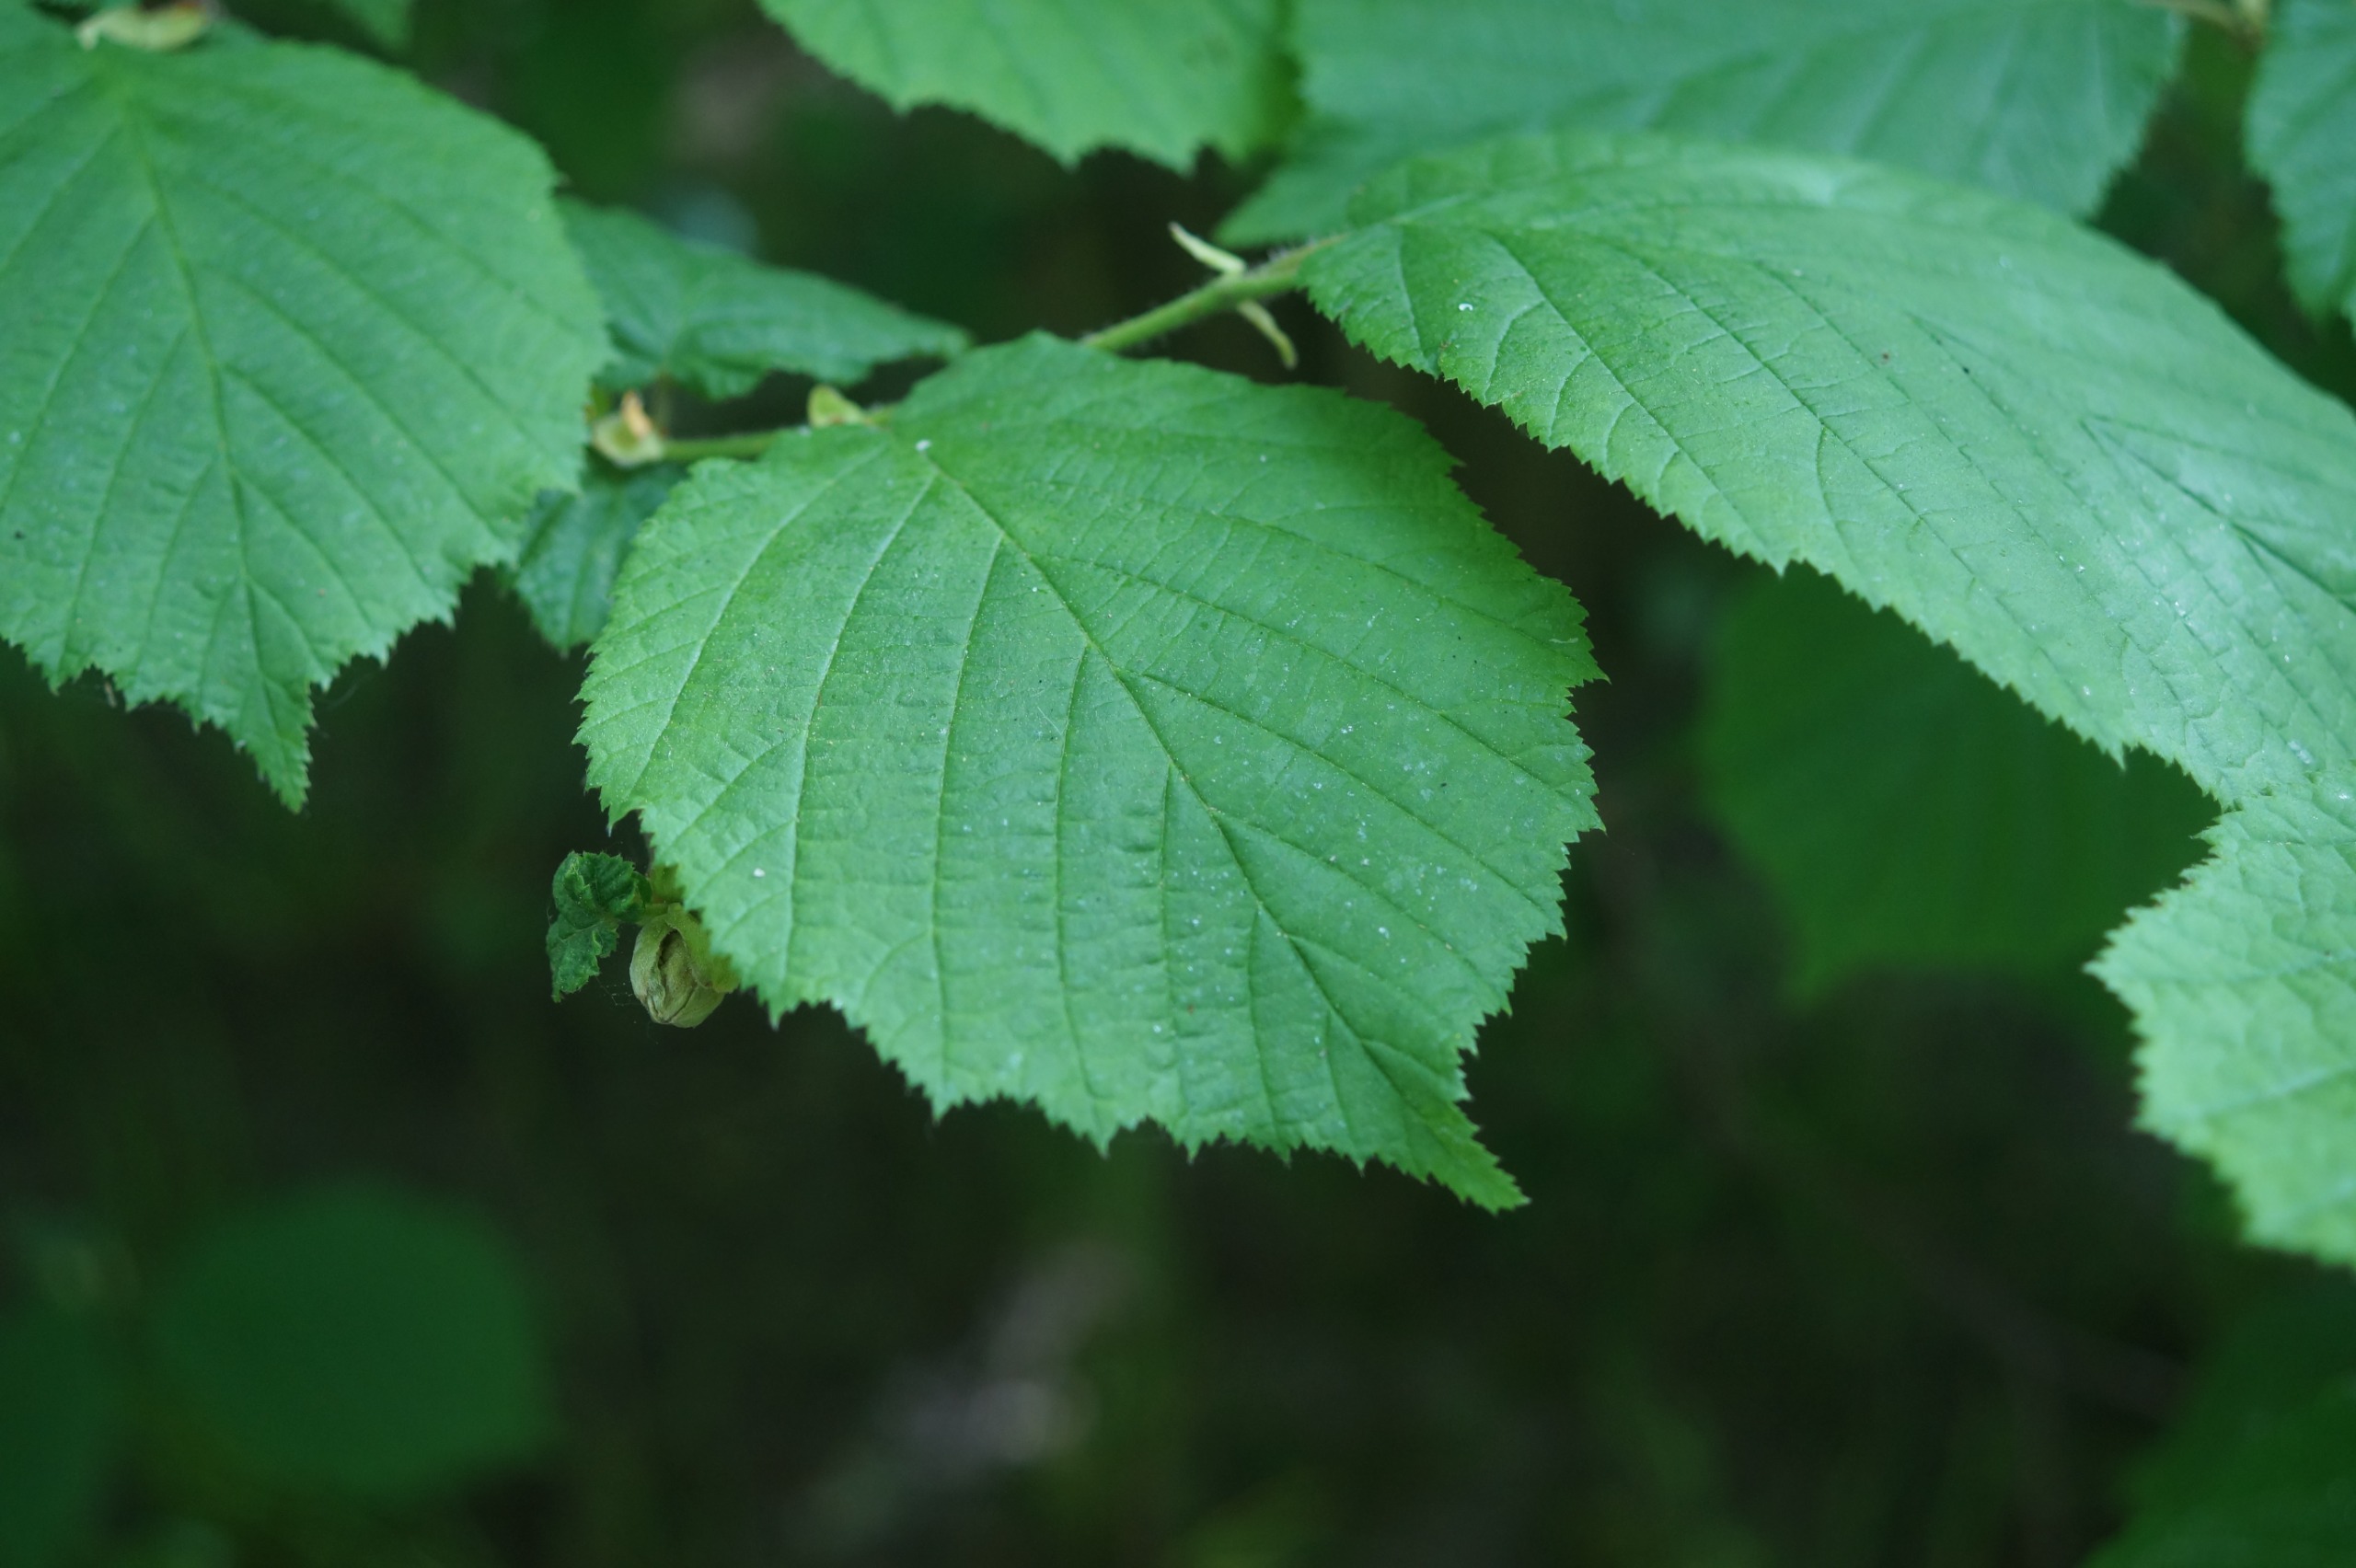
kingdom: Plantae
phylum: Tracheophyta
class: Magnoliopsida
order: Fagales
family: Betulaceae
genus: Corylus
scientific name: Corylus avellana
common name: Hassel
